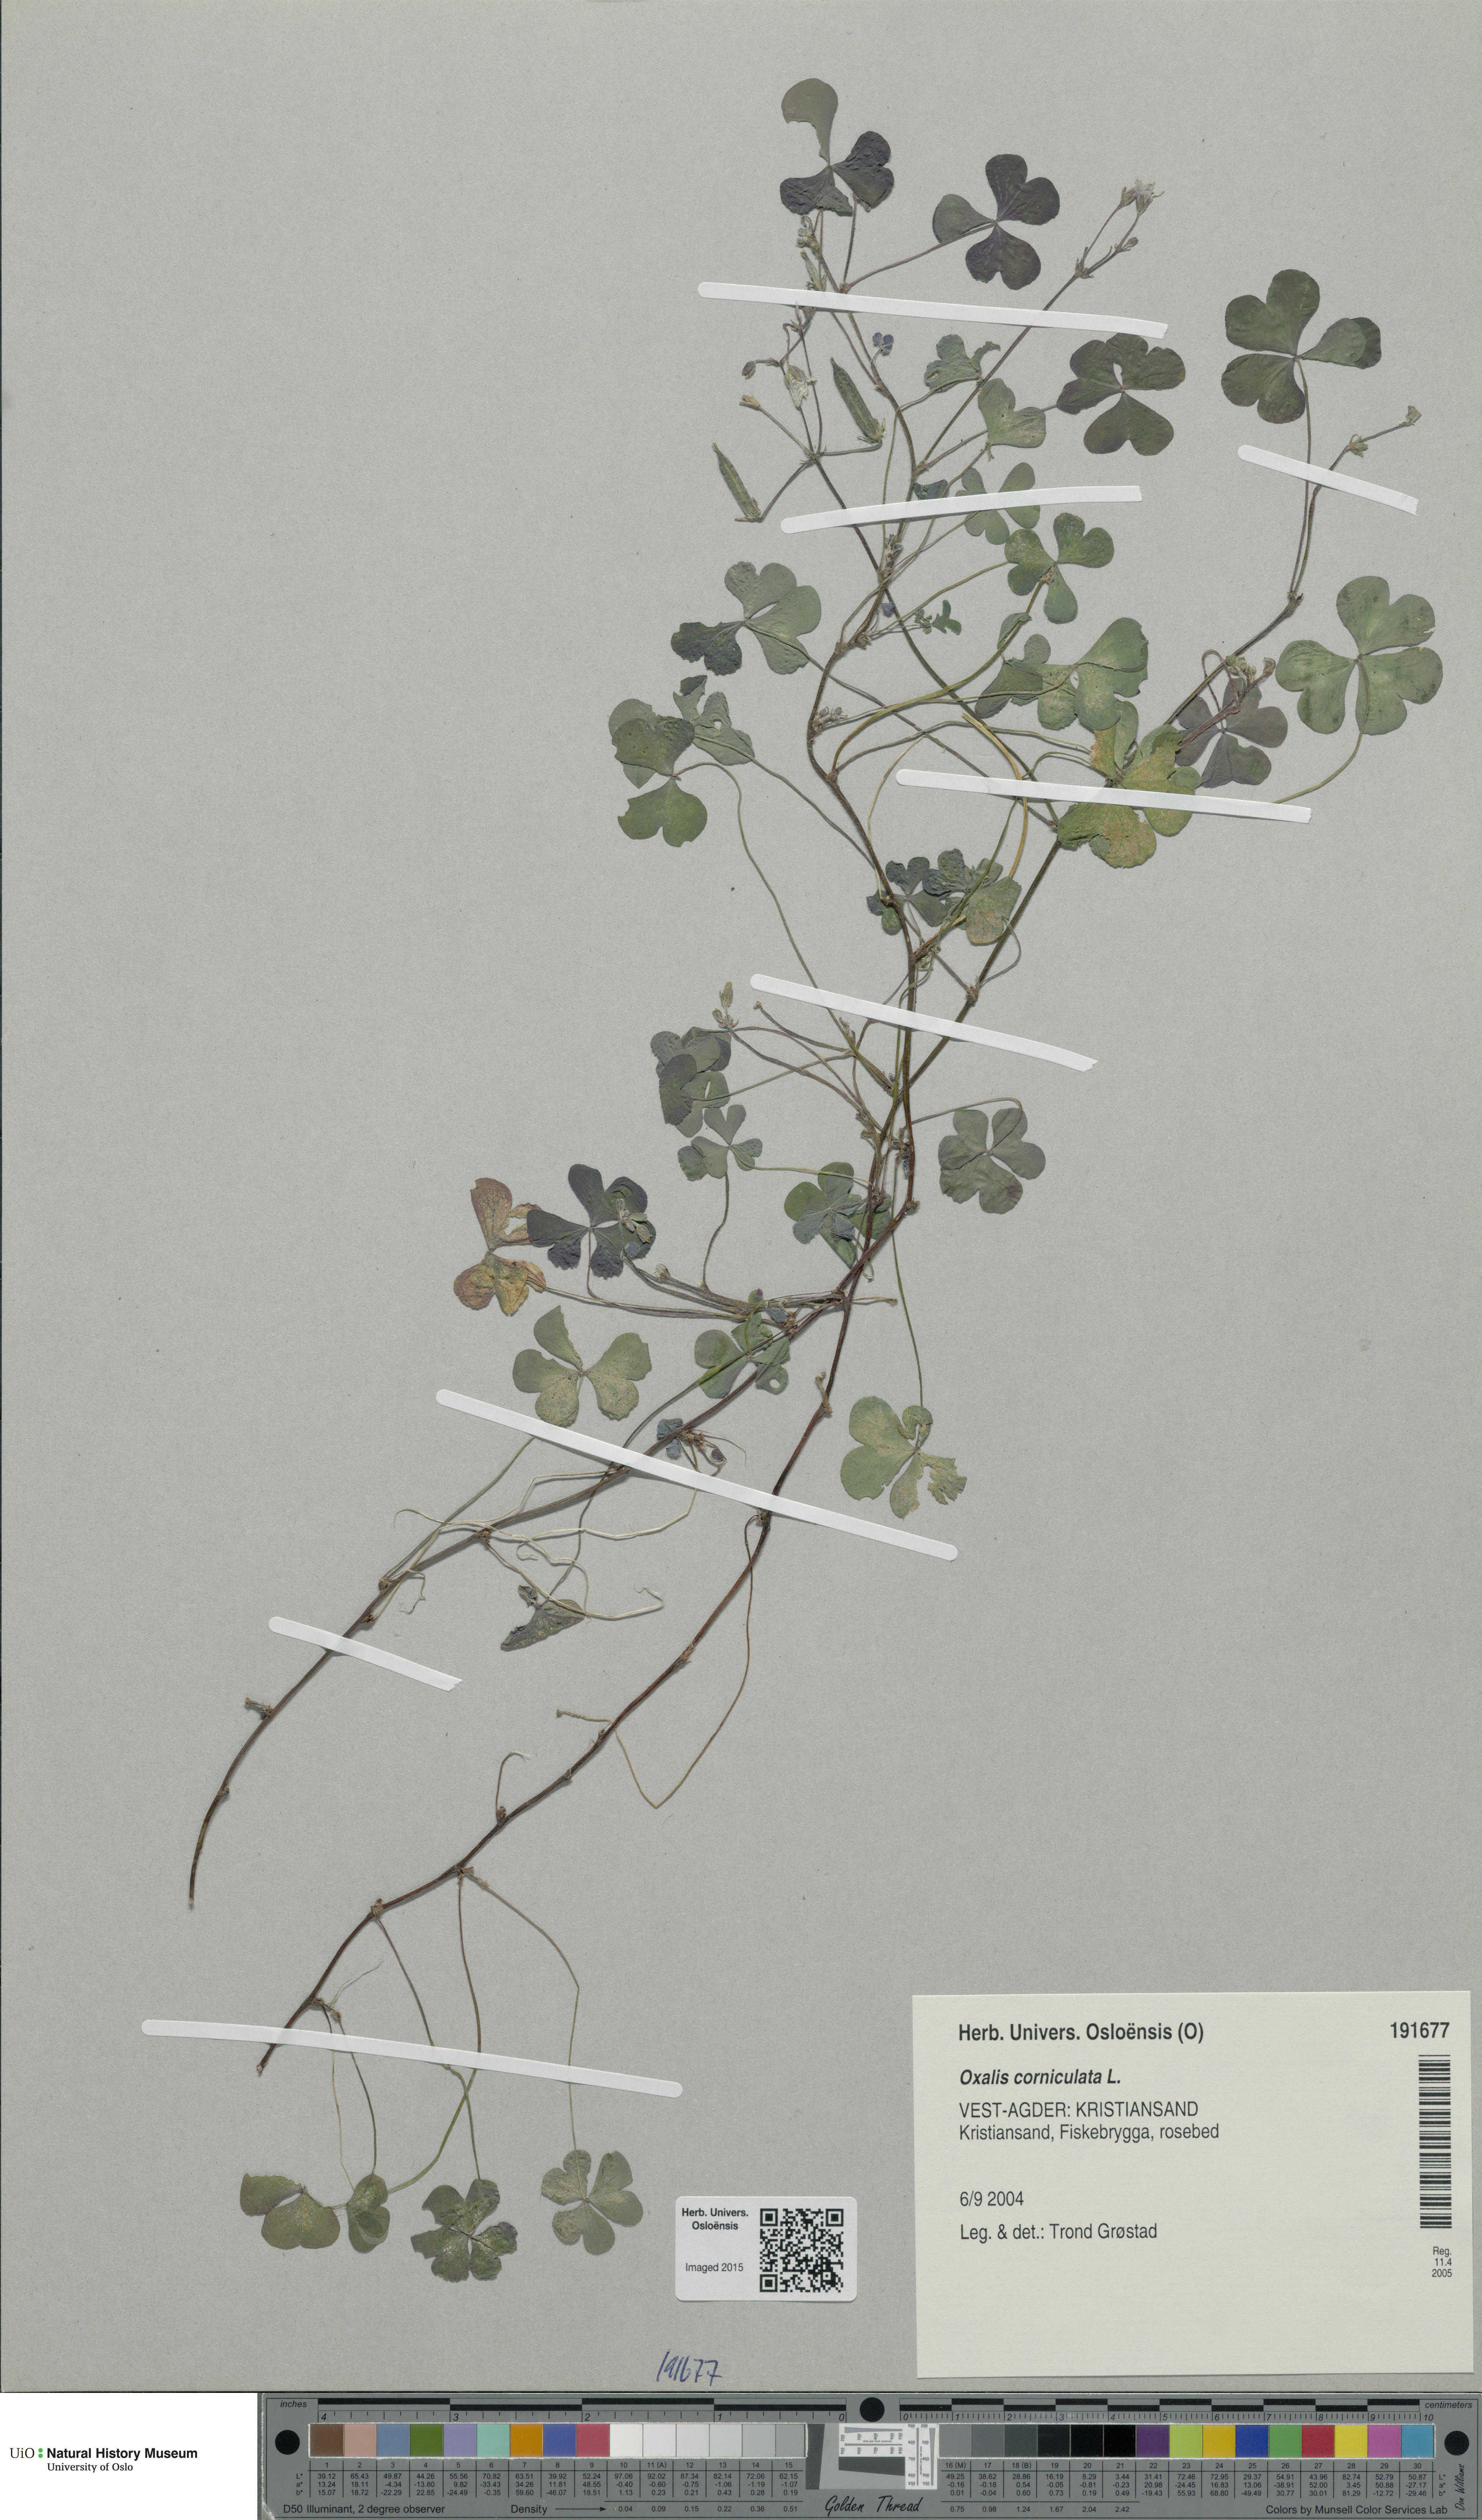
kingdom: Plantae
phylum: Tracheophyta
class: Magnoliopsida
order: Oxalidales
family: Oxalidaceae
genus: Oxalis
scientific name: Oxalis corniculata
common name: Procumbent yellow-sorrel
